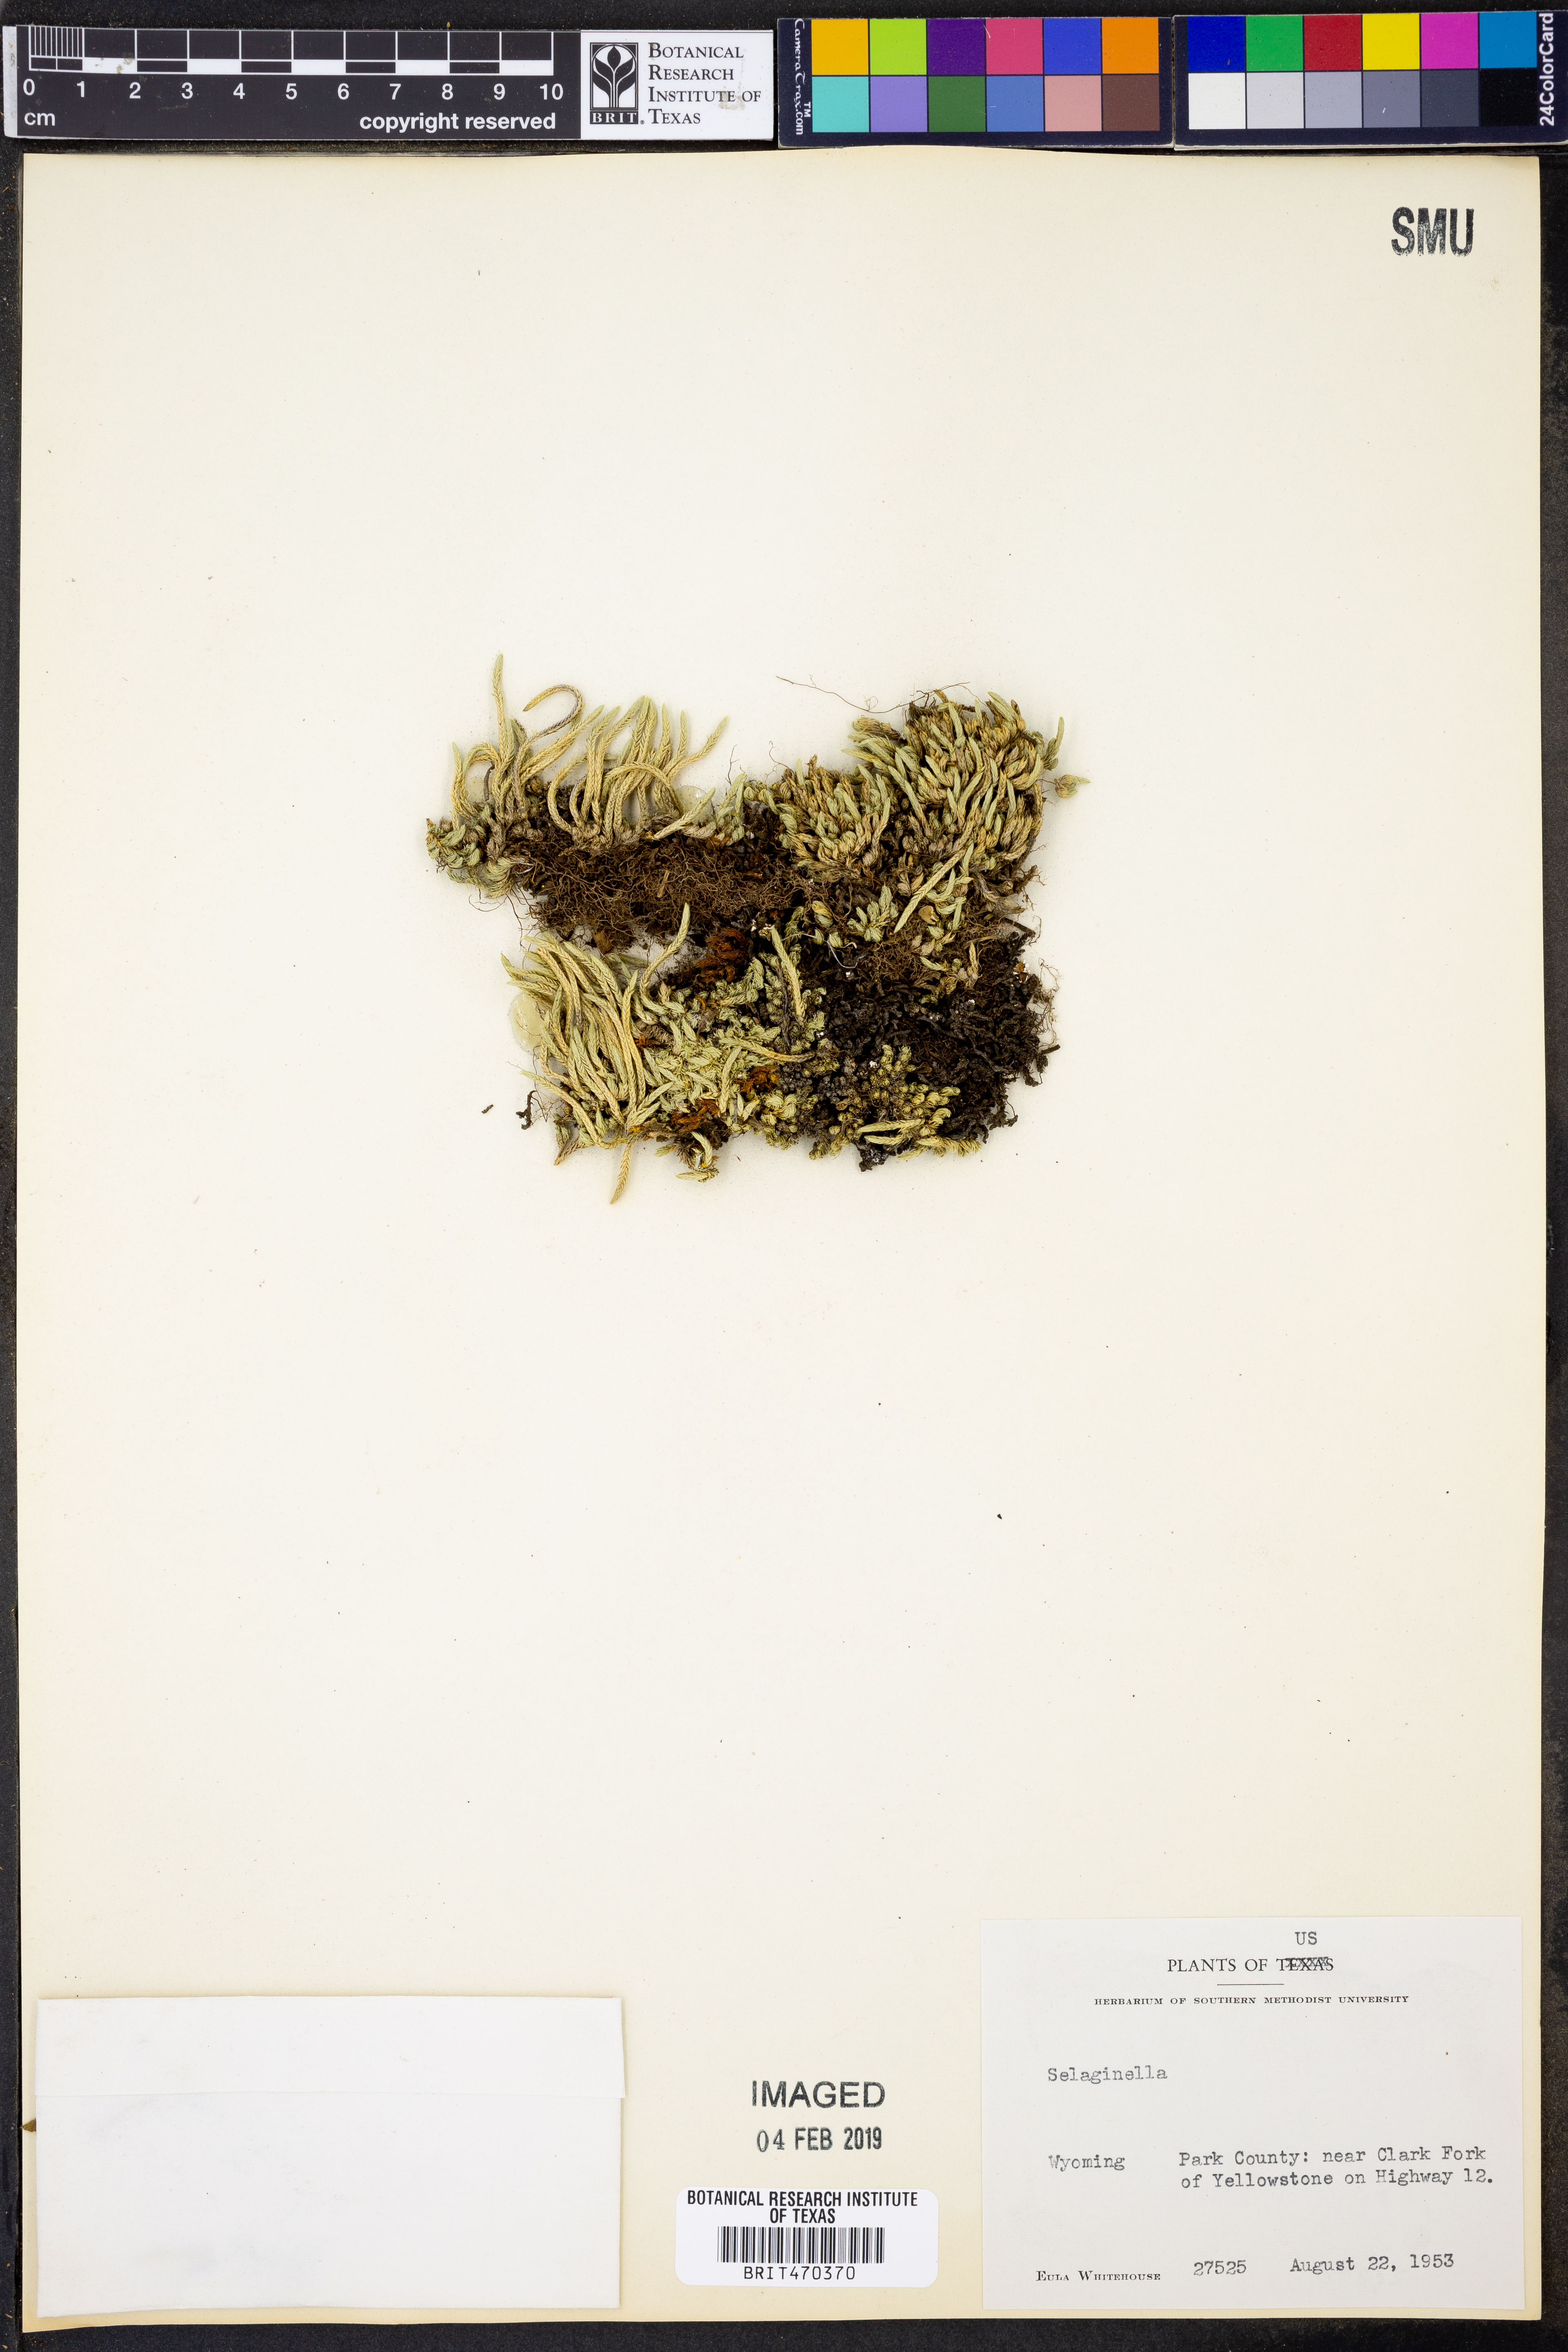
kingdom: Plantae
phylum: Tracheophyta
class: Lycopodiopsida
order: Selaginellales
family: Selaginellaceae
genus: Selaginella
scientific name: Selaginella
